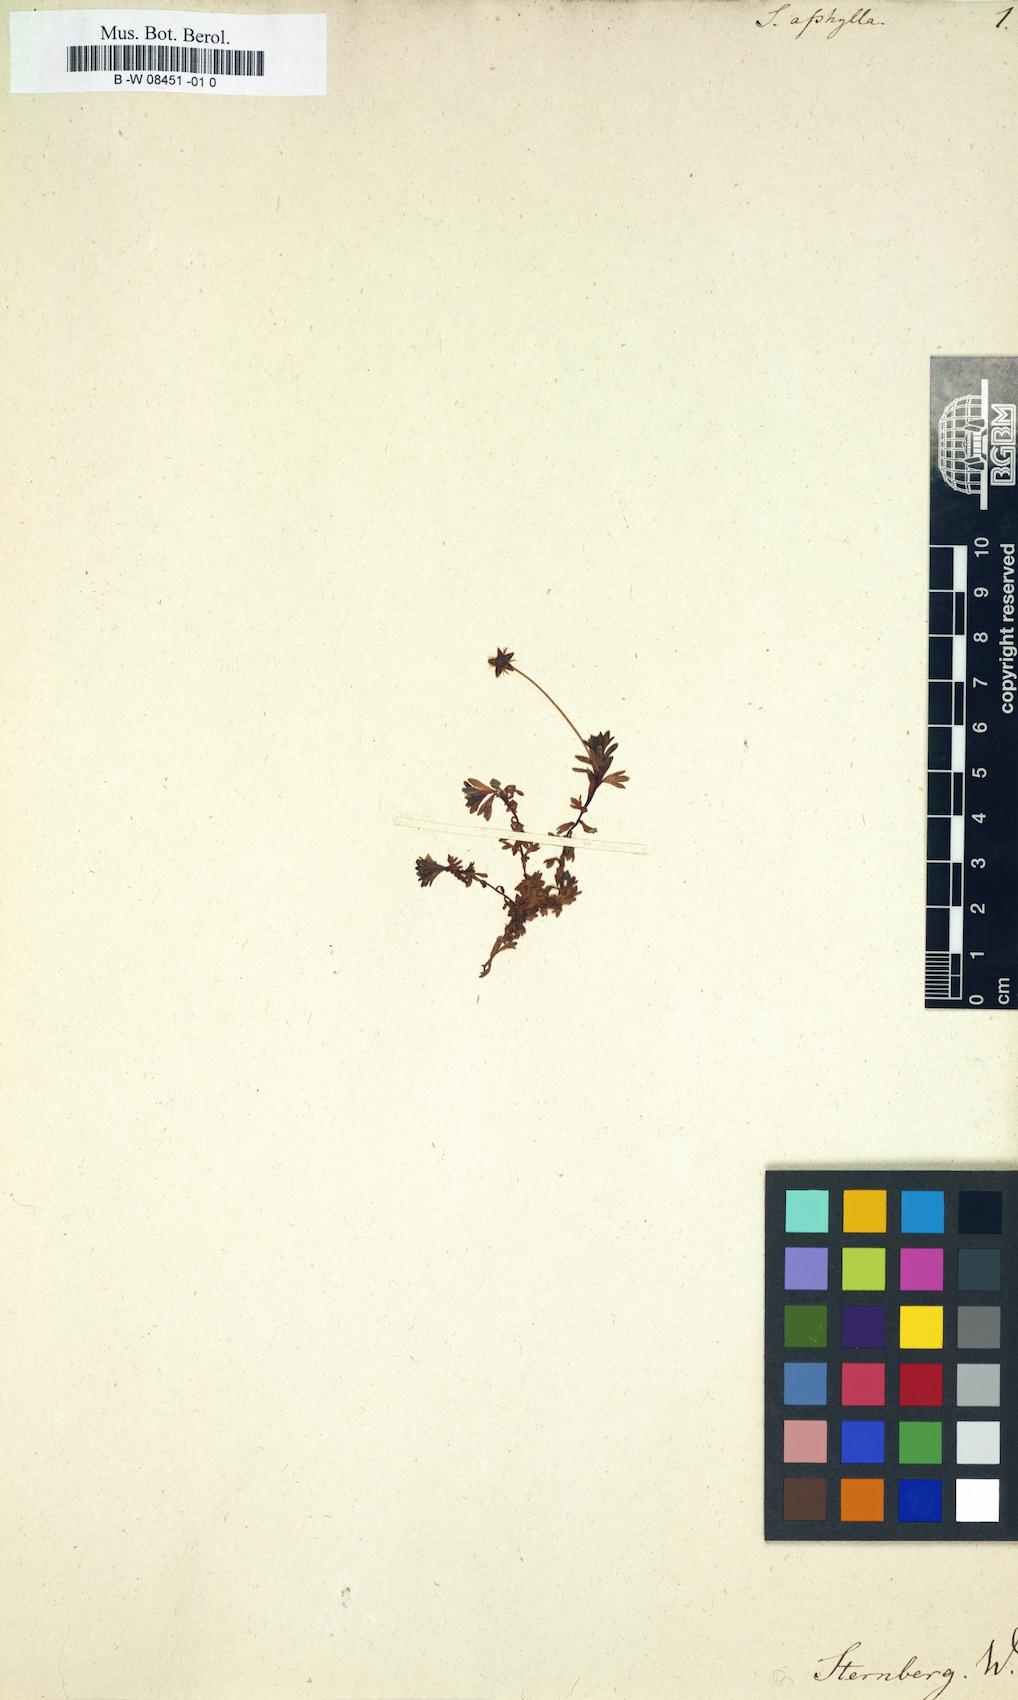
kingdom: Plantae
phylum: Tracheophyta
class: Magnoliopsida
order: Saxifragales
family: Saxifragaceae
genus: Saxifraga
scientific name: Saxifraga aphylla
